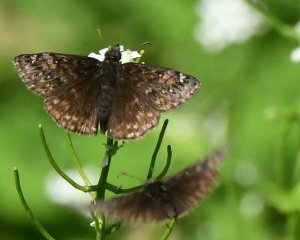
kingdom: Animalia
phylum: Arthropoda
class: Insecta
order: Lepidoptera
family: Hesperiidae
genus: Gesta
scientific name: Gesta
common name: Juvenal's Duskywing
